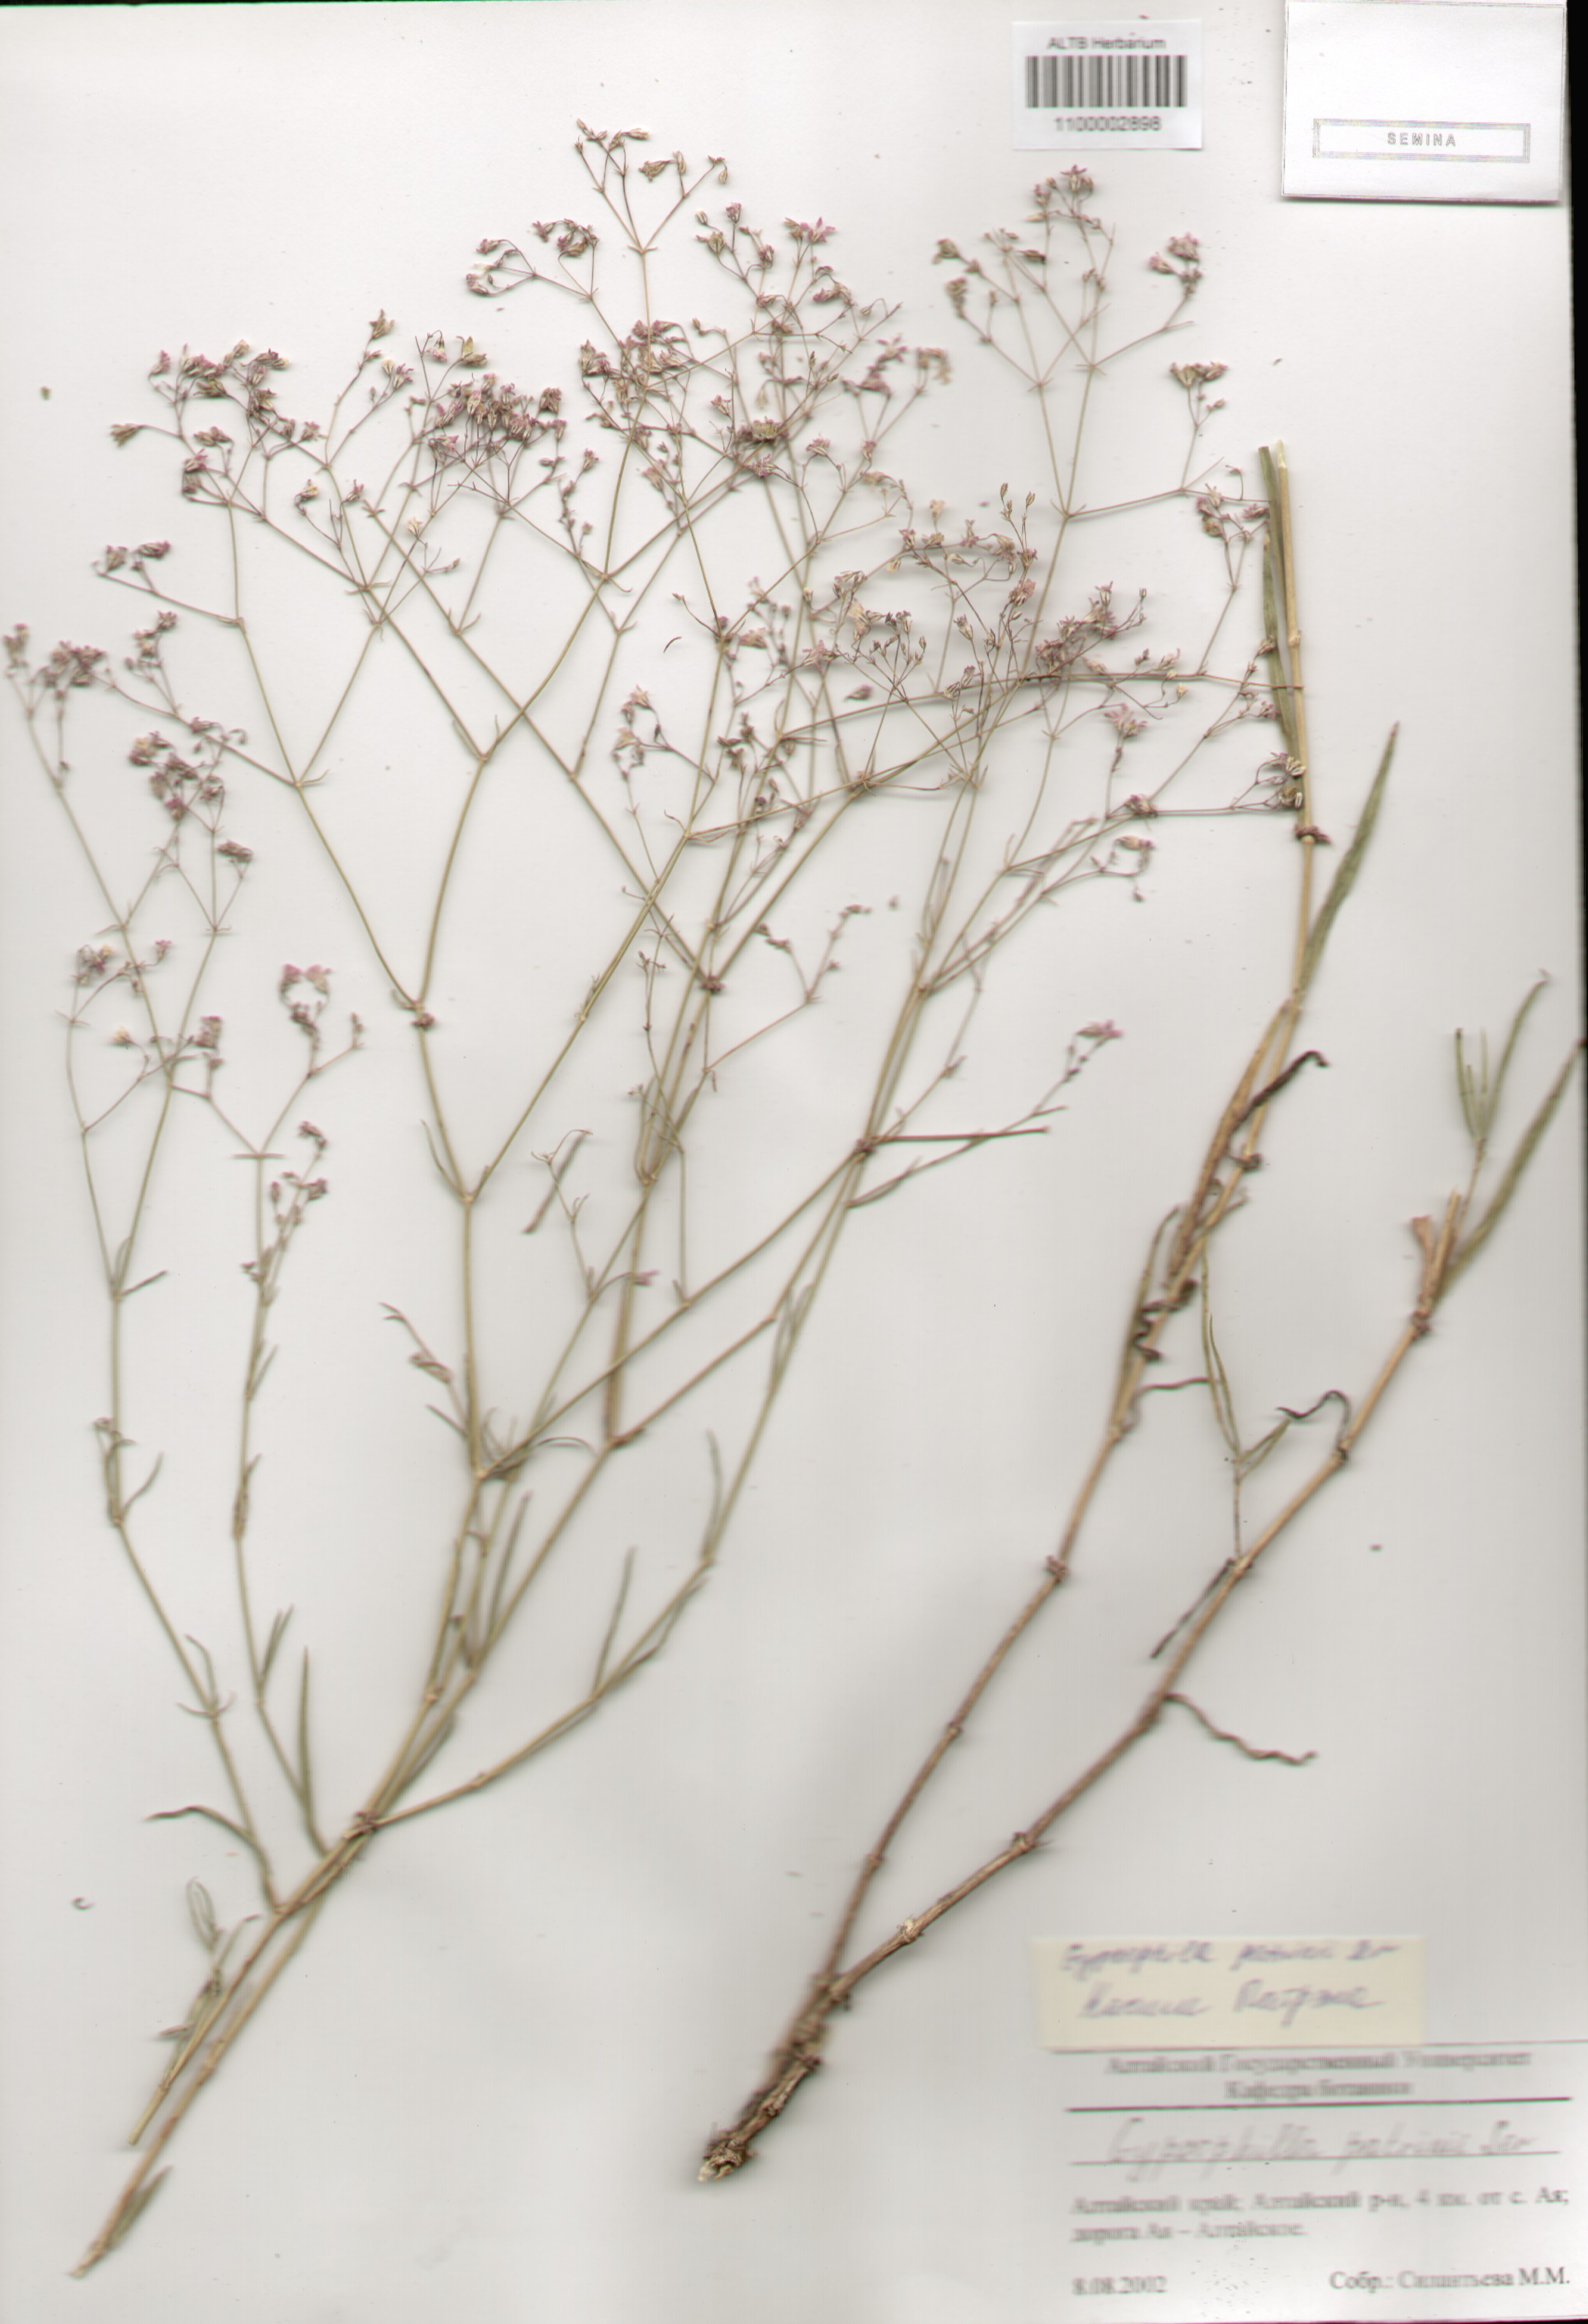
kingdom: Plantae
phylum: Tracheophyta
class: Magnoliopsida
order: Caryophyllales
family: Caryophyllaceae
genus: Gypsophila
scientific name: Gypsophila patrinii
